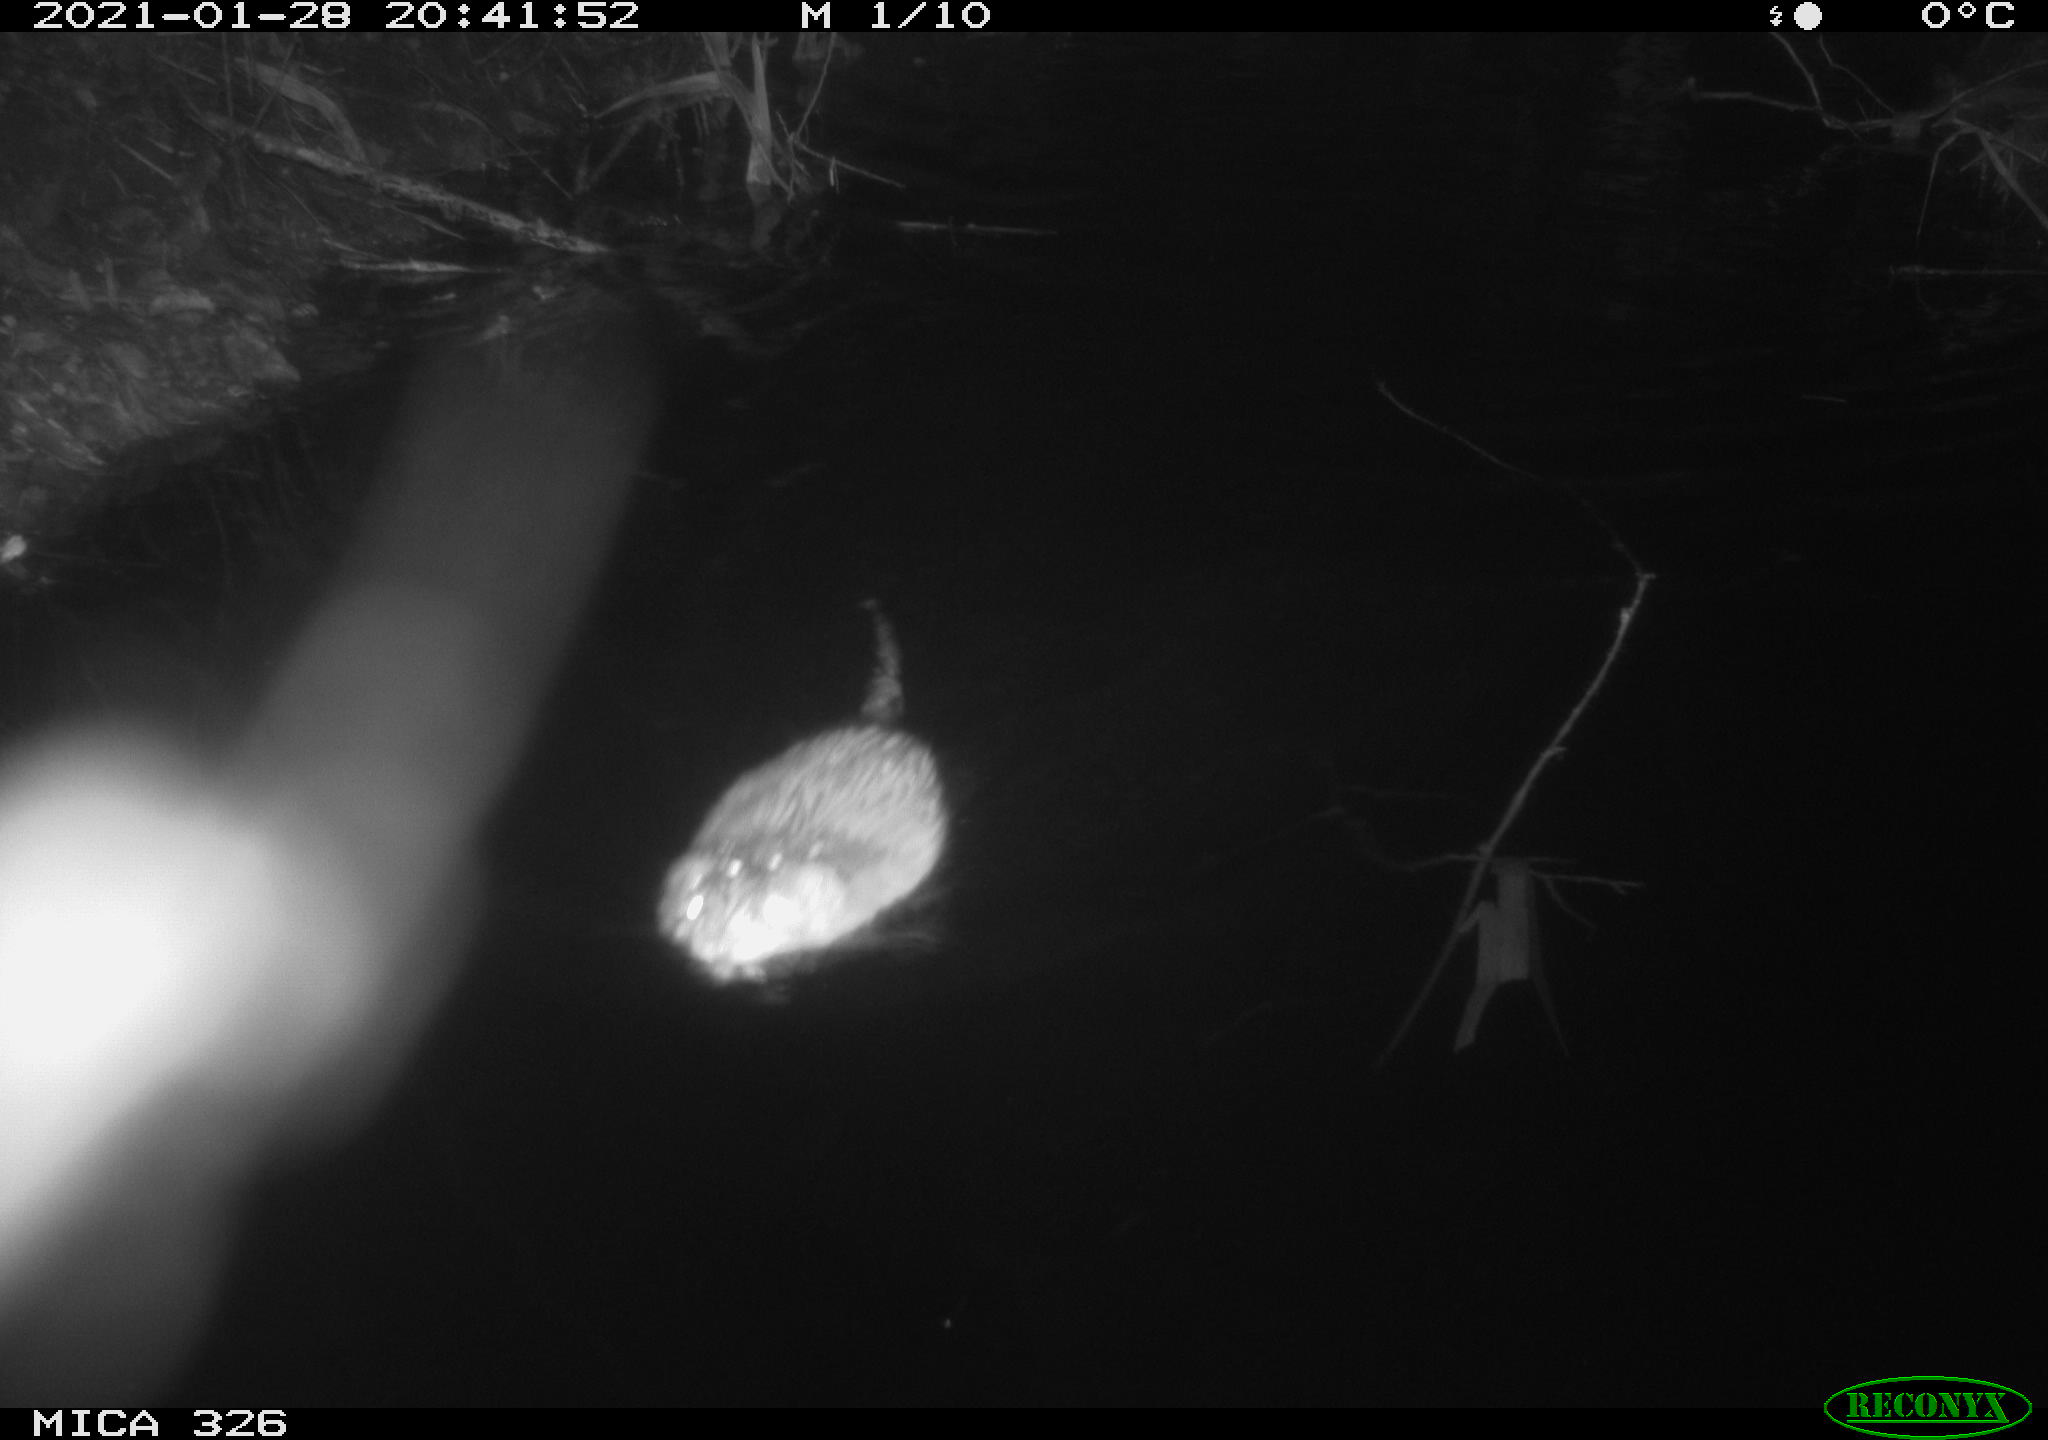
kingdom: Animalia
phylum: Chordata
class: Mammalia
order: Rodentia
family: Myocastoridae
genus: Myocastor
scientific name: Myocastor coypus
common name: Coypu
